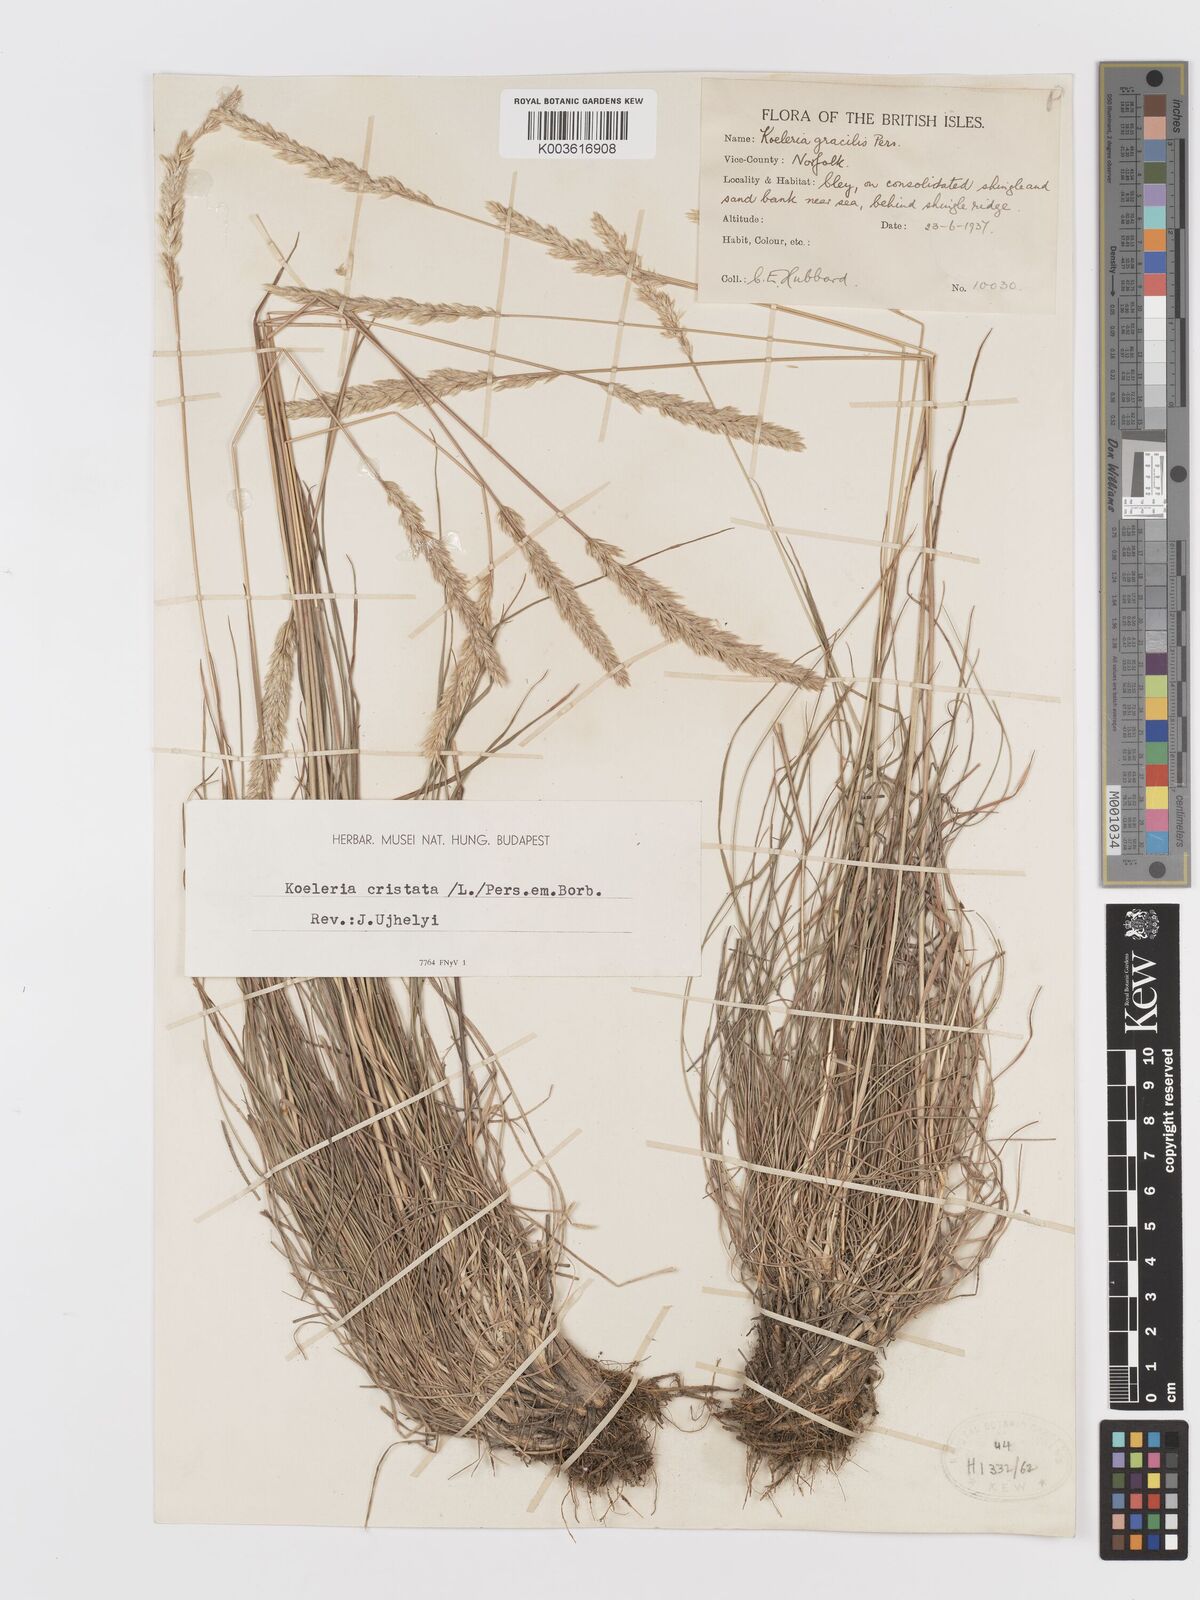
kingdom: Plantae
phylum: Tracheophyta
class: Liliopsida
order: Poales
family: Poaceae
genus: Koeleria
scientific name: Koeleria macrantha
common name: Crested hair-grass
